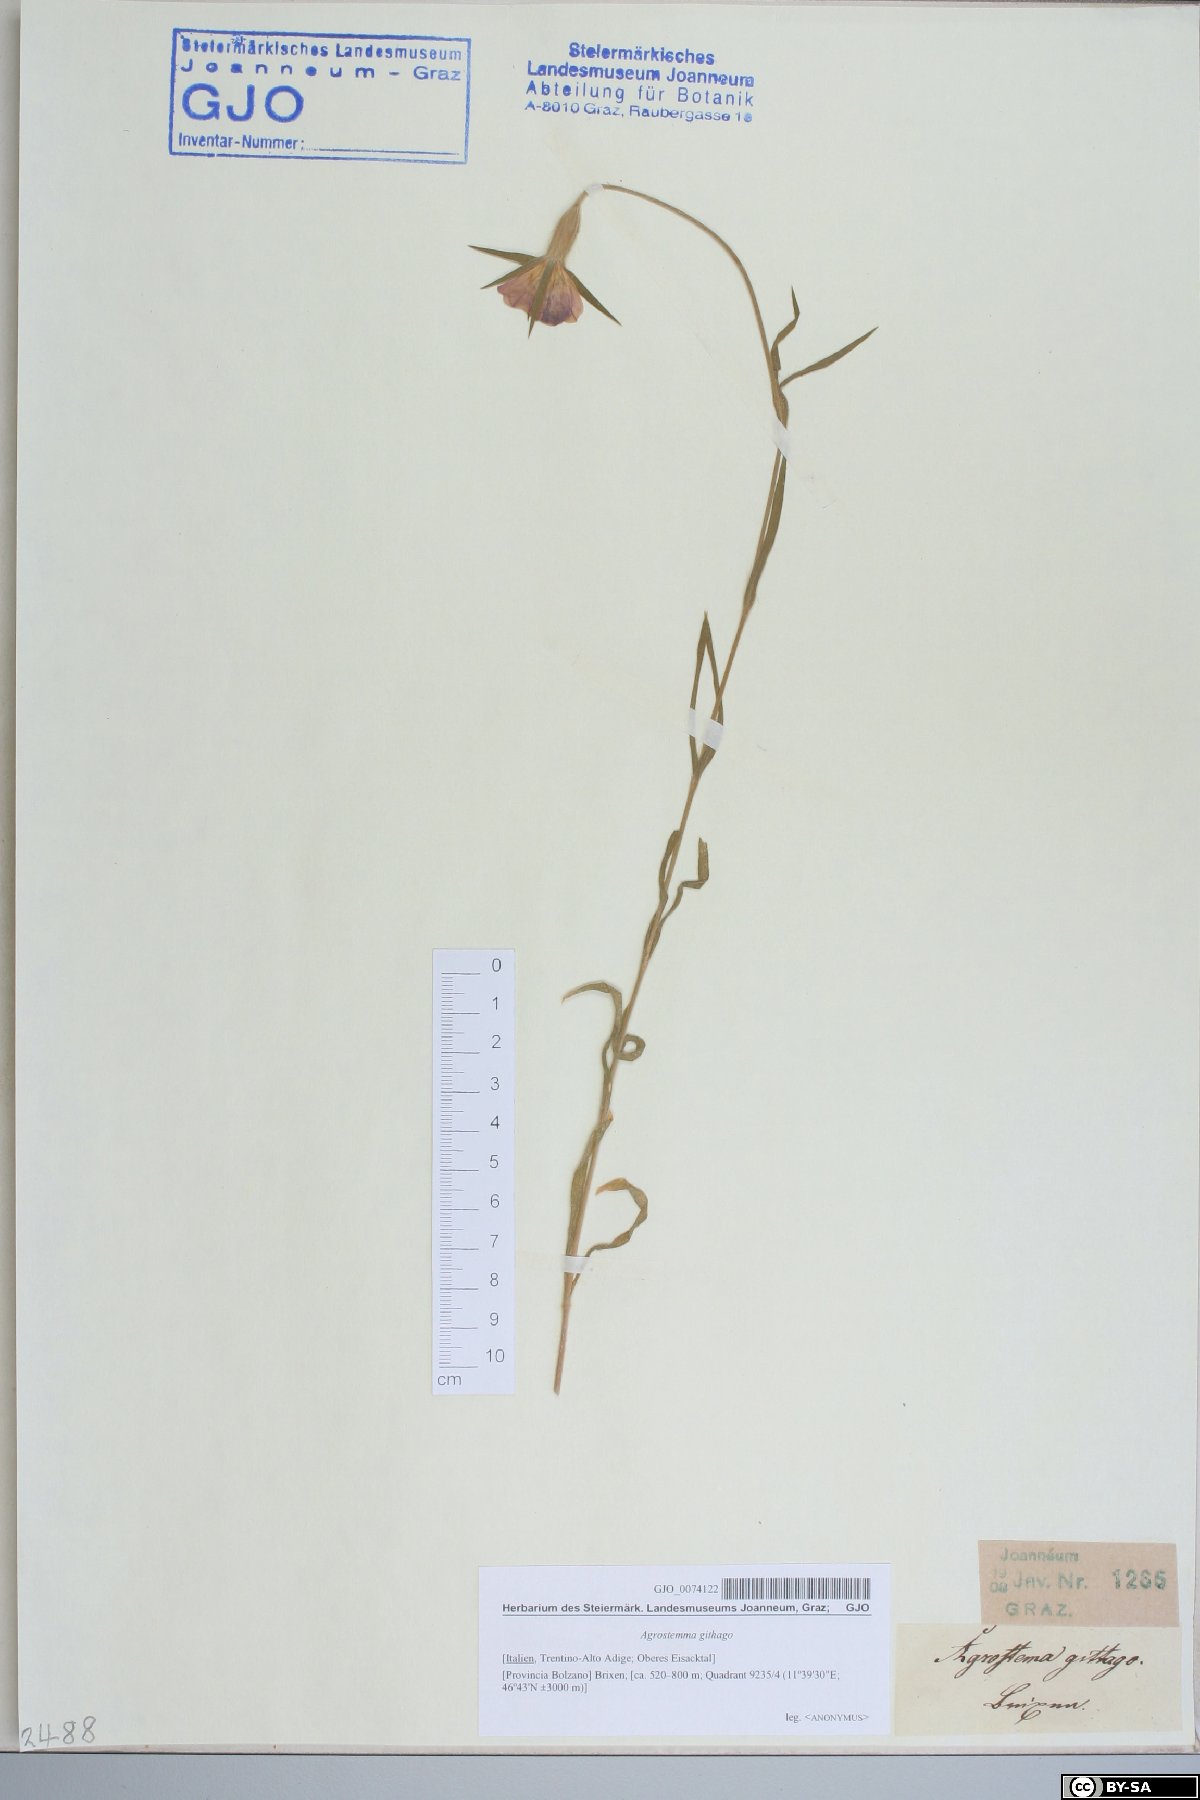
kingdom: Plantae
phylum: Tracheophyta
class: Magnoliopsida
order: Caryophyllales
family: Caryophyllaceae
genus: Agrostemma
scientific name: Agrostemma githago
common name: Common corncockle
